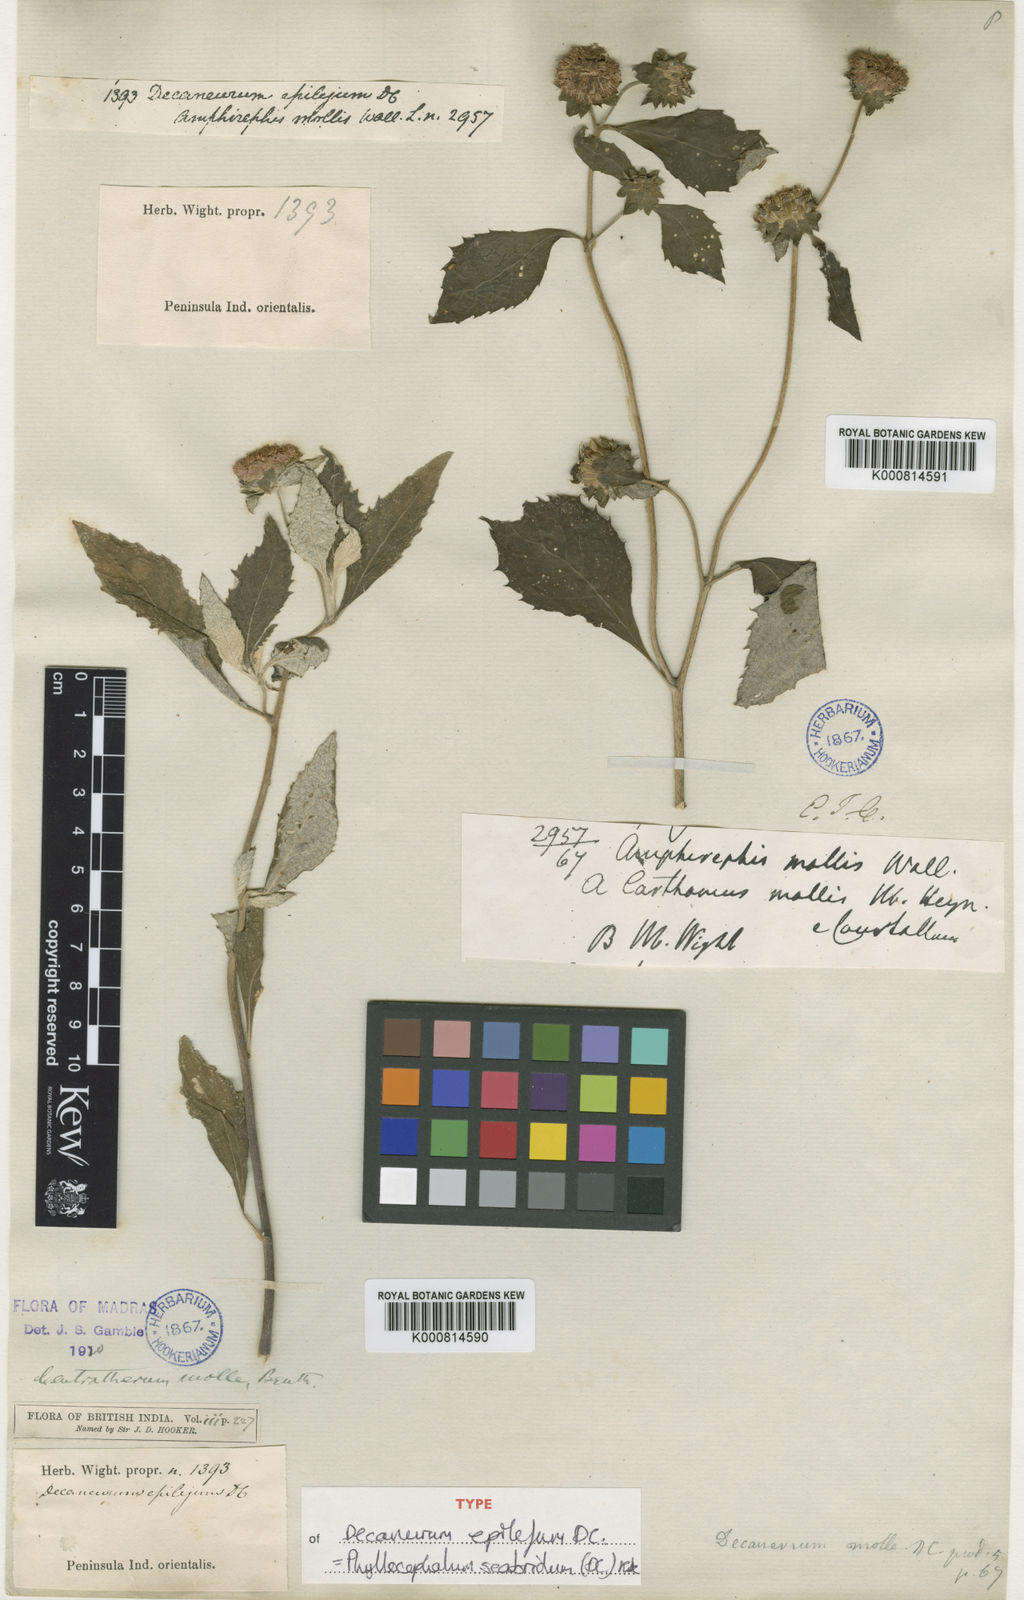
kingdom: Plantae
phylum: Tracheophyta
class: Magnoliopsida
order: Asterales
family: Asteraceae
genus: Phyllocephalum
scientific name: Phyllocephalum scabridum
